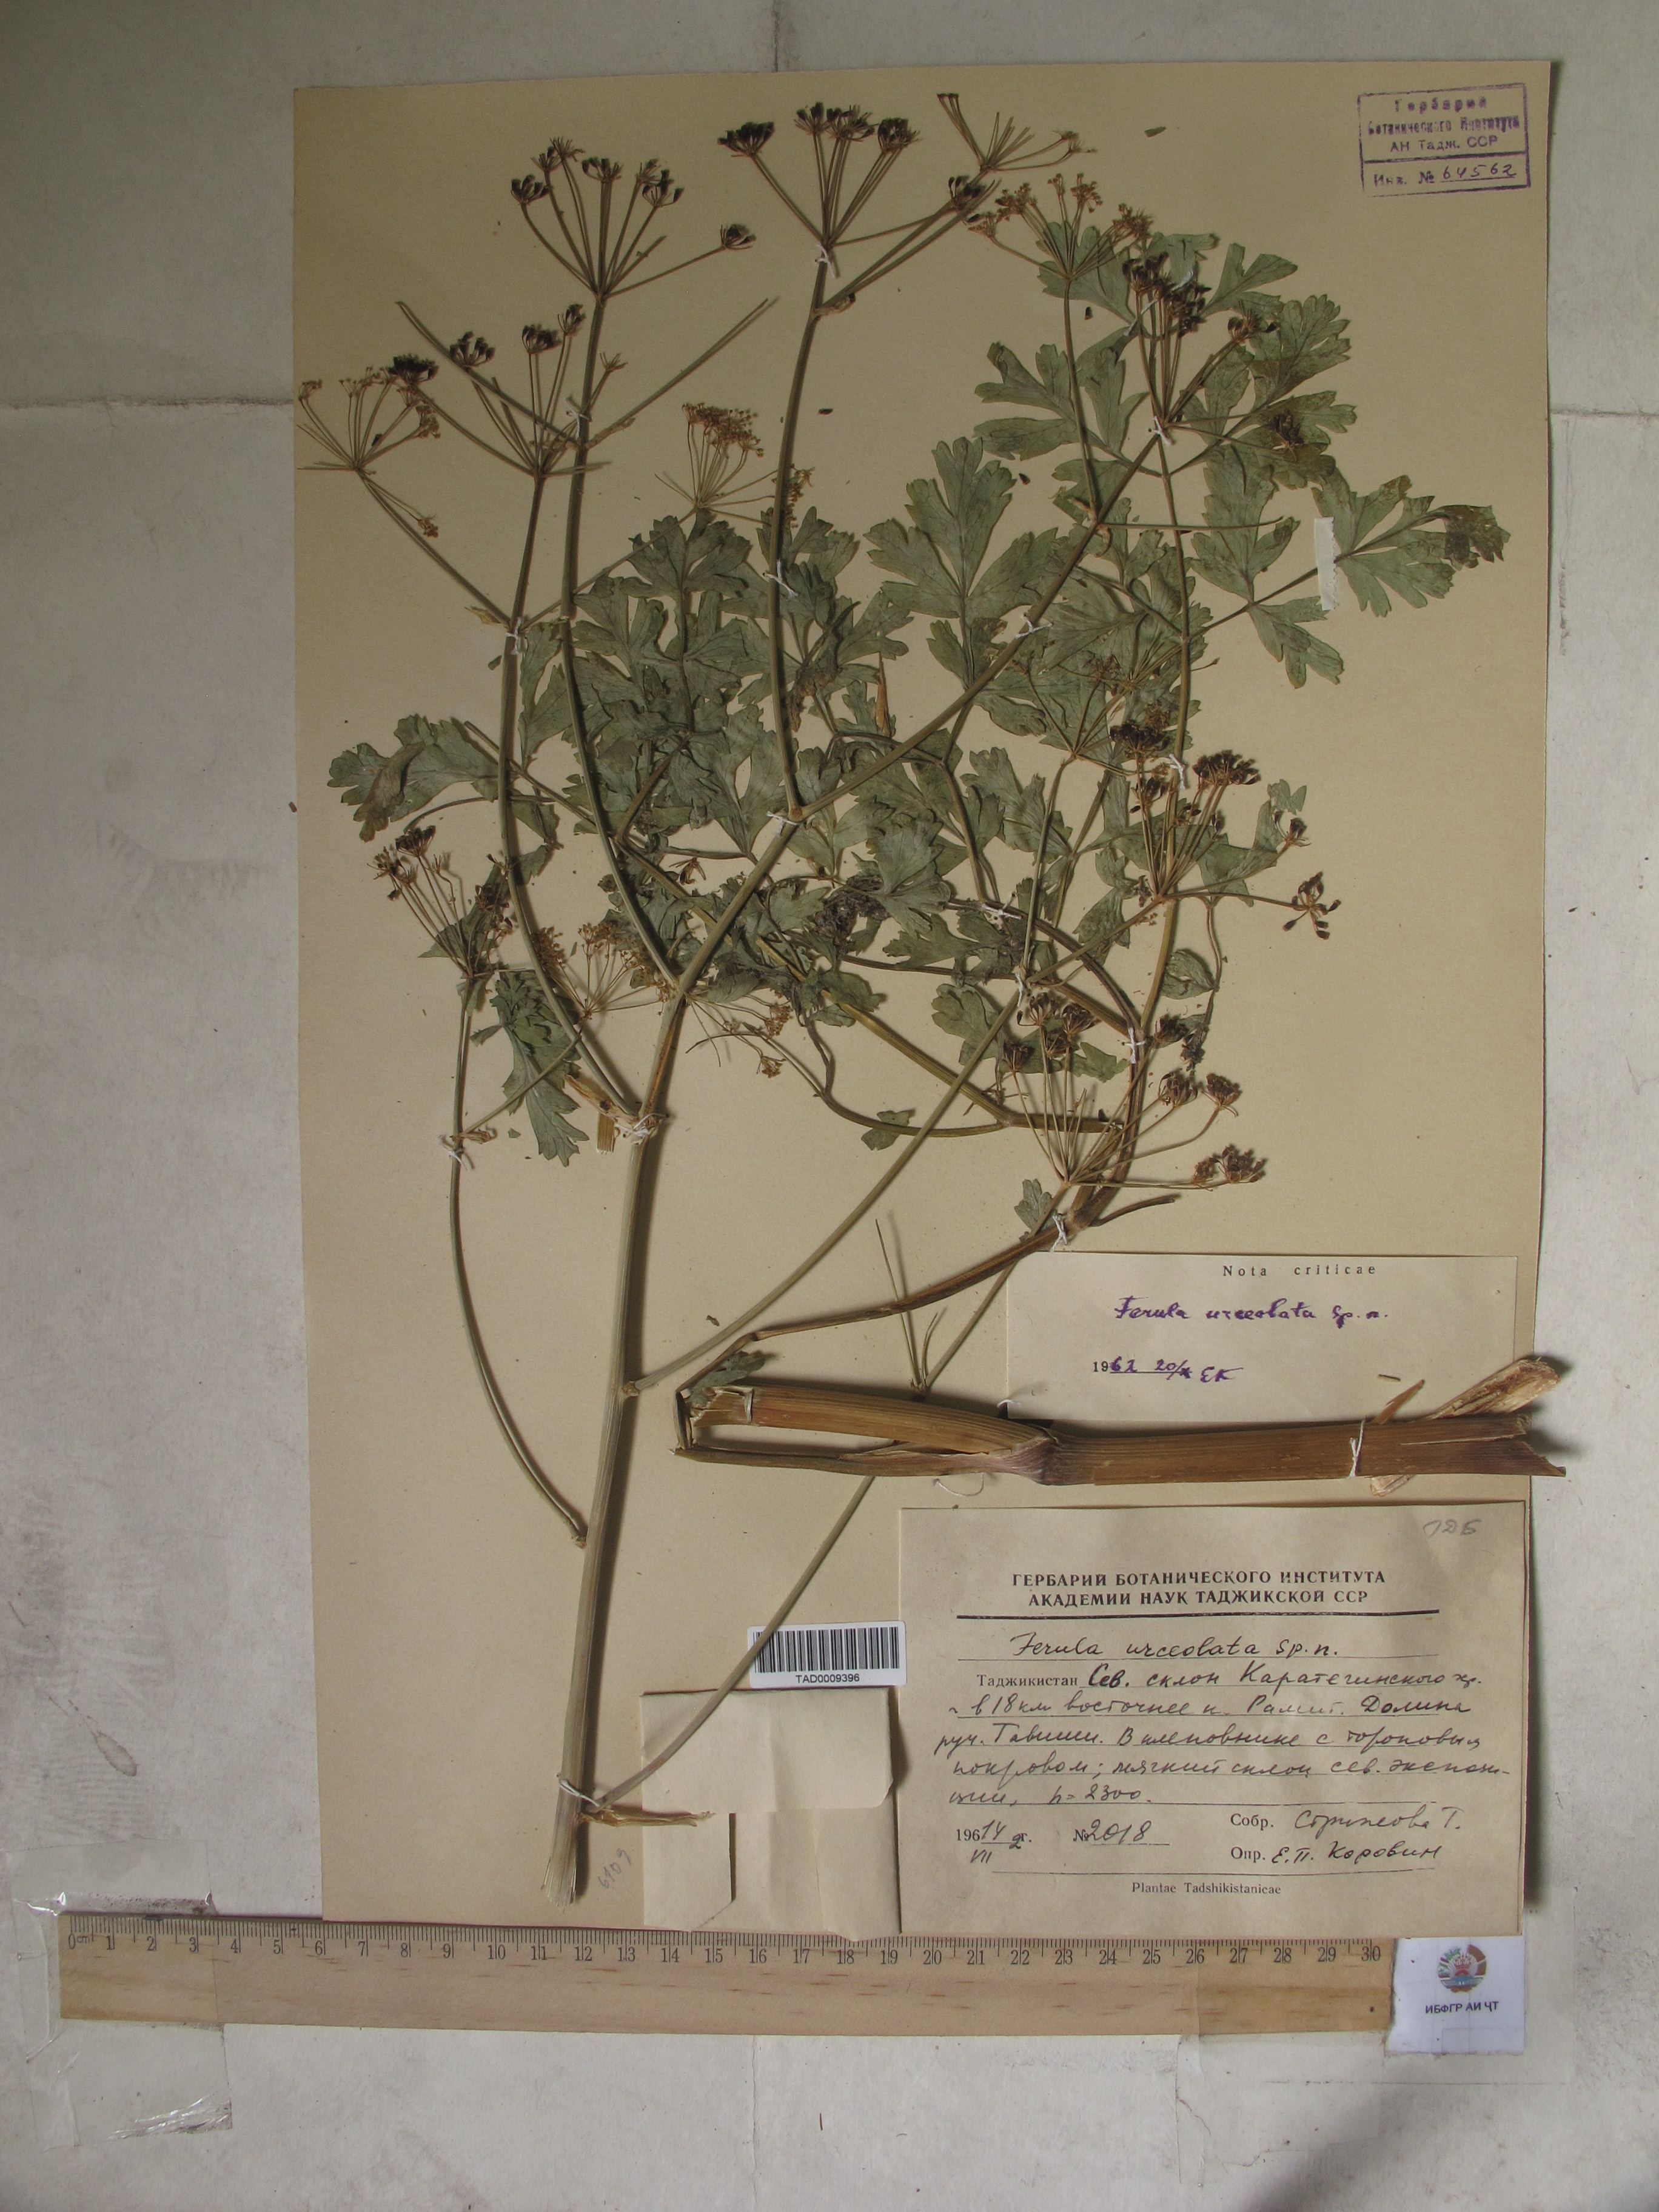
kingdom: Plantae
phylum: Tracheophyta
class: Magnoliopsida
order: Apiales
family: Apiaceae
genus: Ferula
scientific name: Ferula moschata
